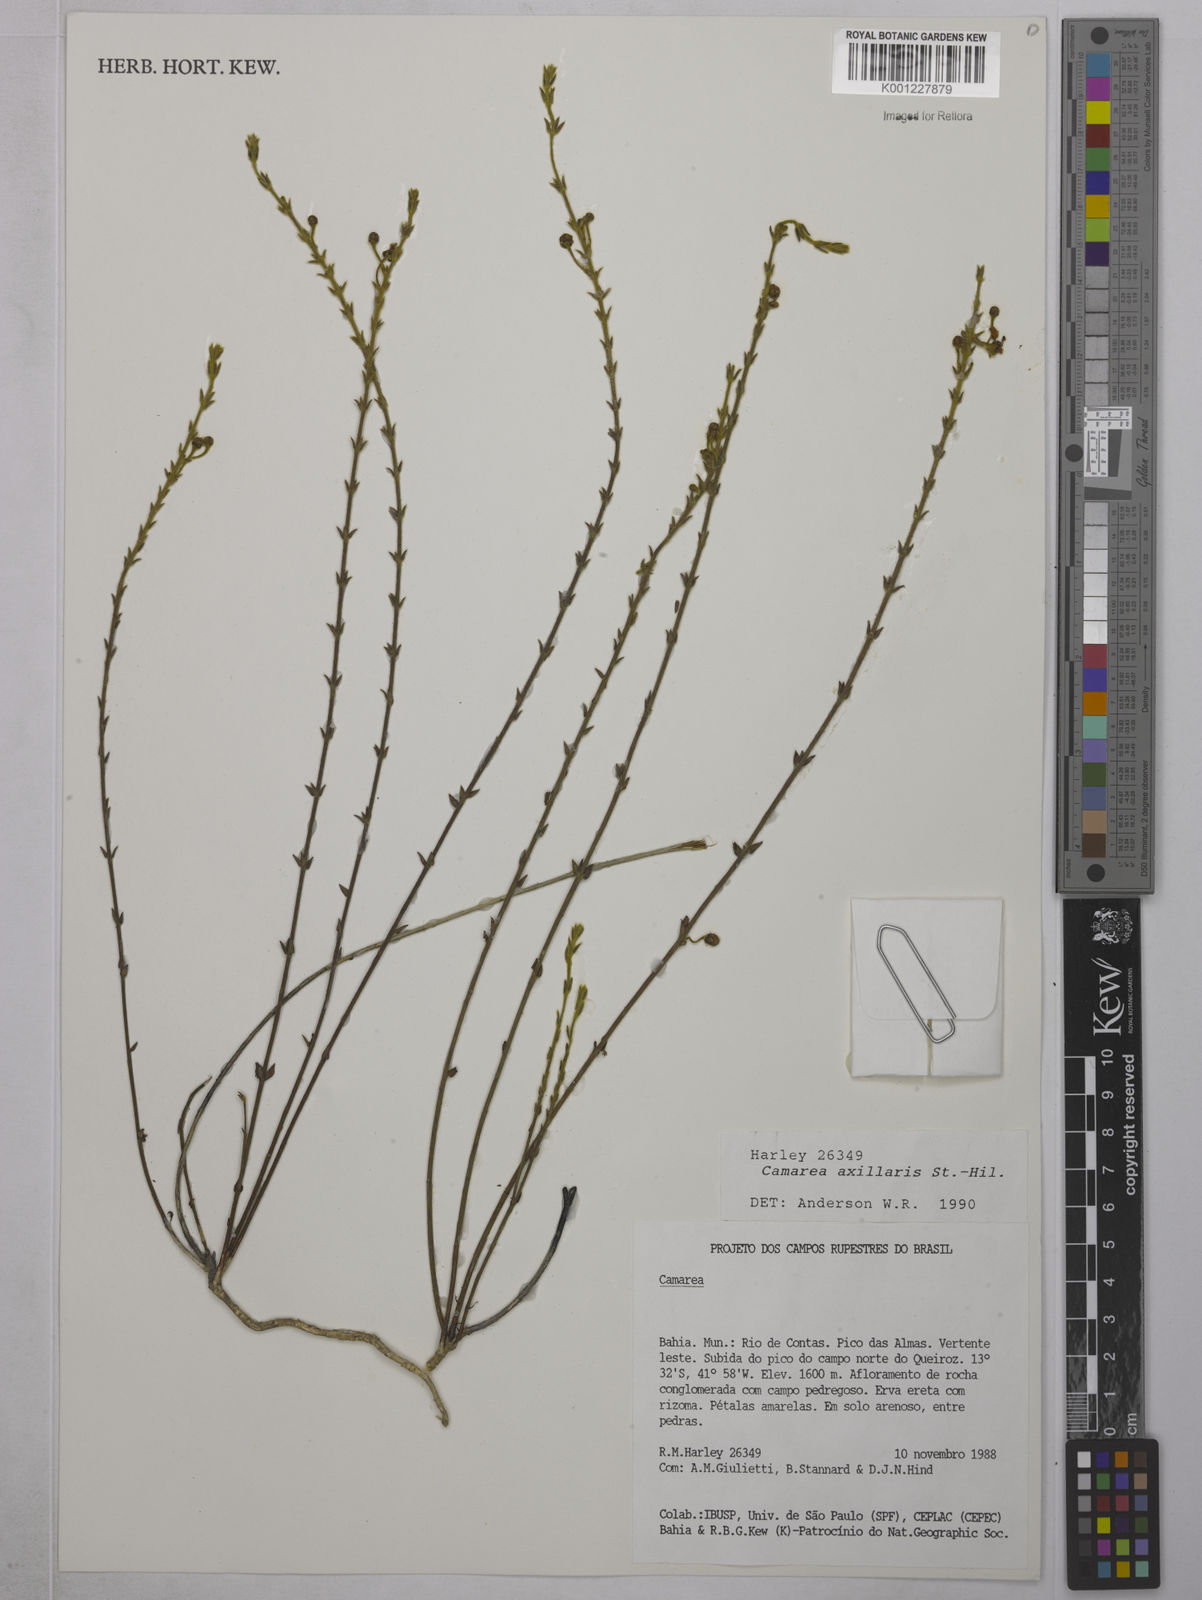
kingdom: Plantae
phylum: Tracheophyta
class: Magnoliopsida
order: Malpighiales
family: Malpighiaceae
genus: Camarea
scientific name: Camarea axillaris
